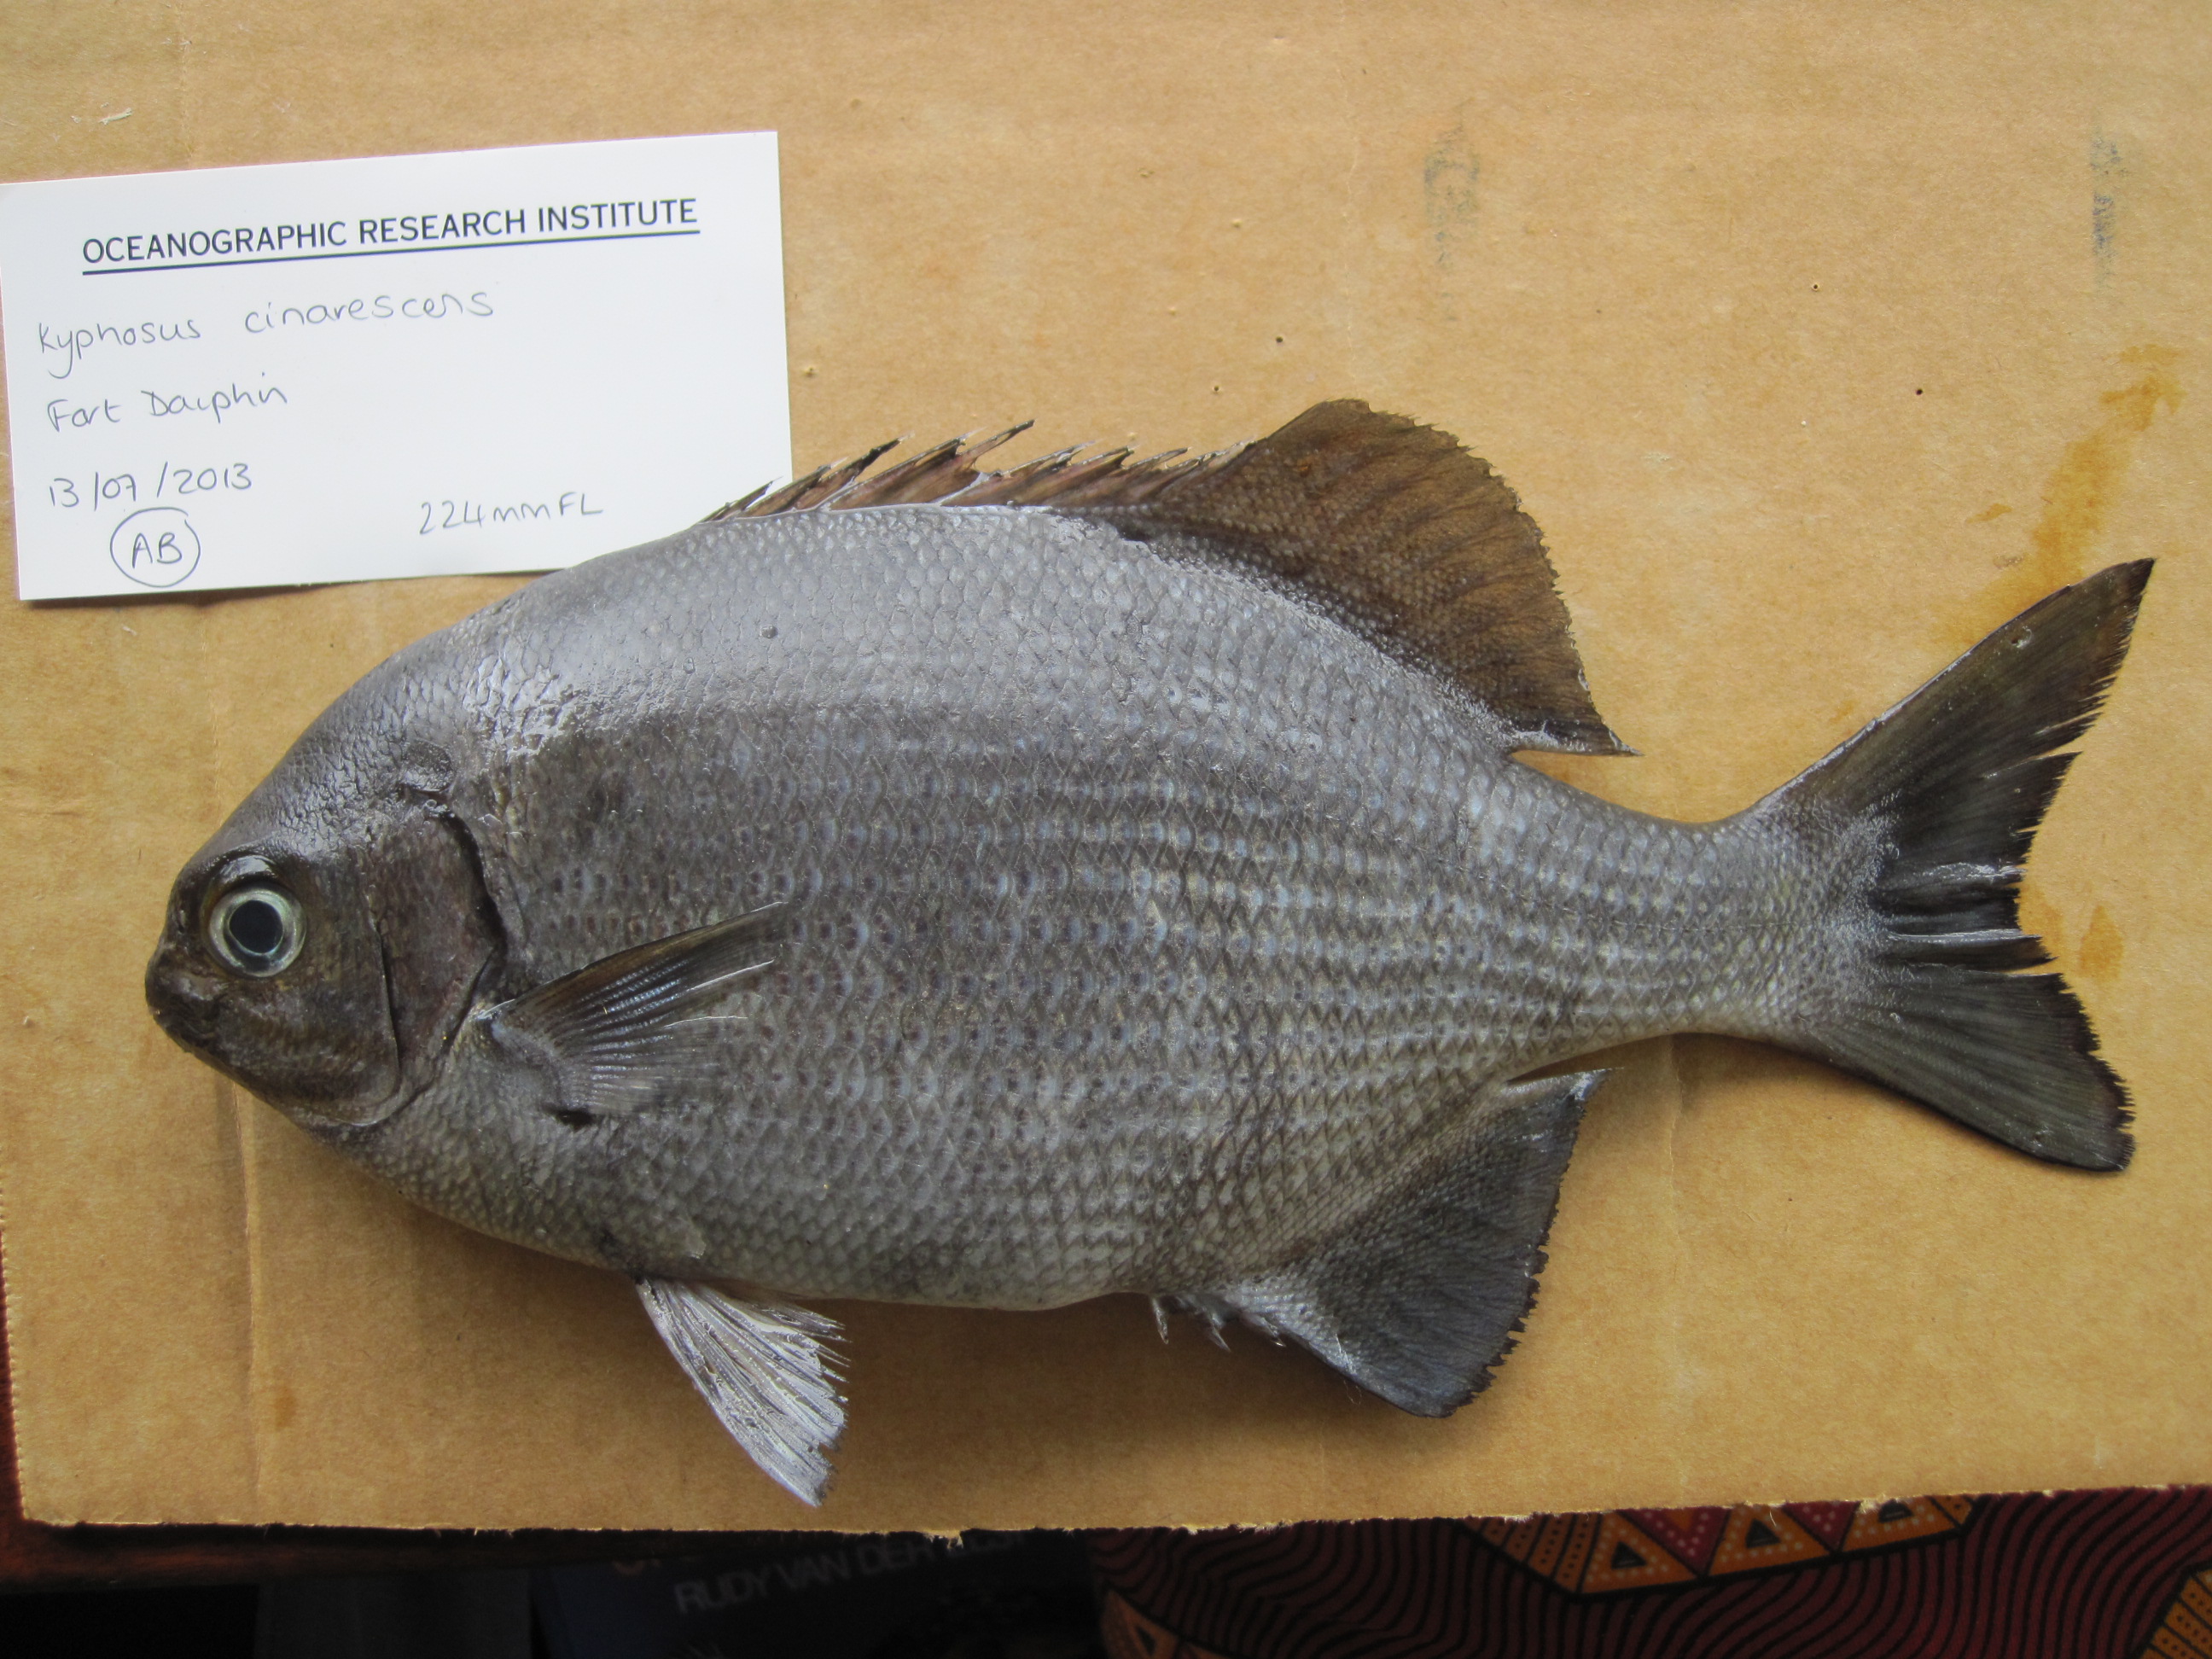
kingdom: Animalia
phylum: Chordata
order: Perciformes
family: Kyphosidae
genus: Kyphosus
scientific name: Kyphosus cinerascens
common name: Topsail drummer
